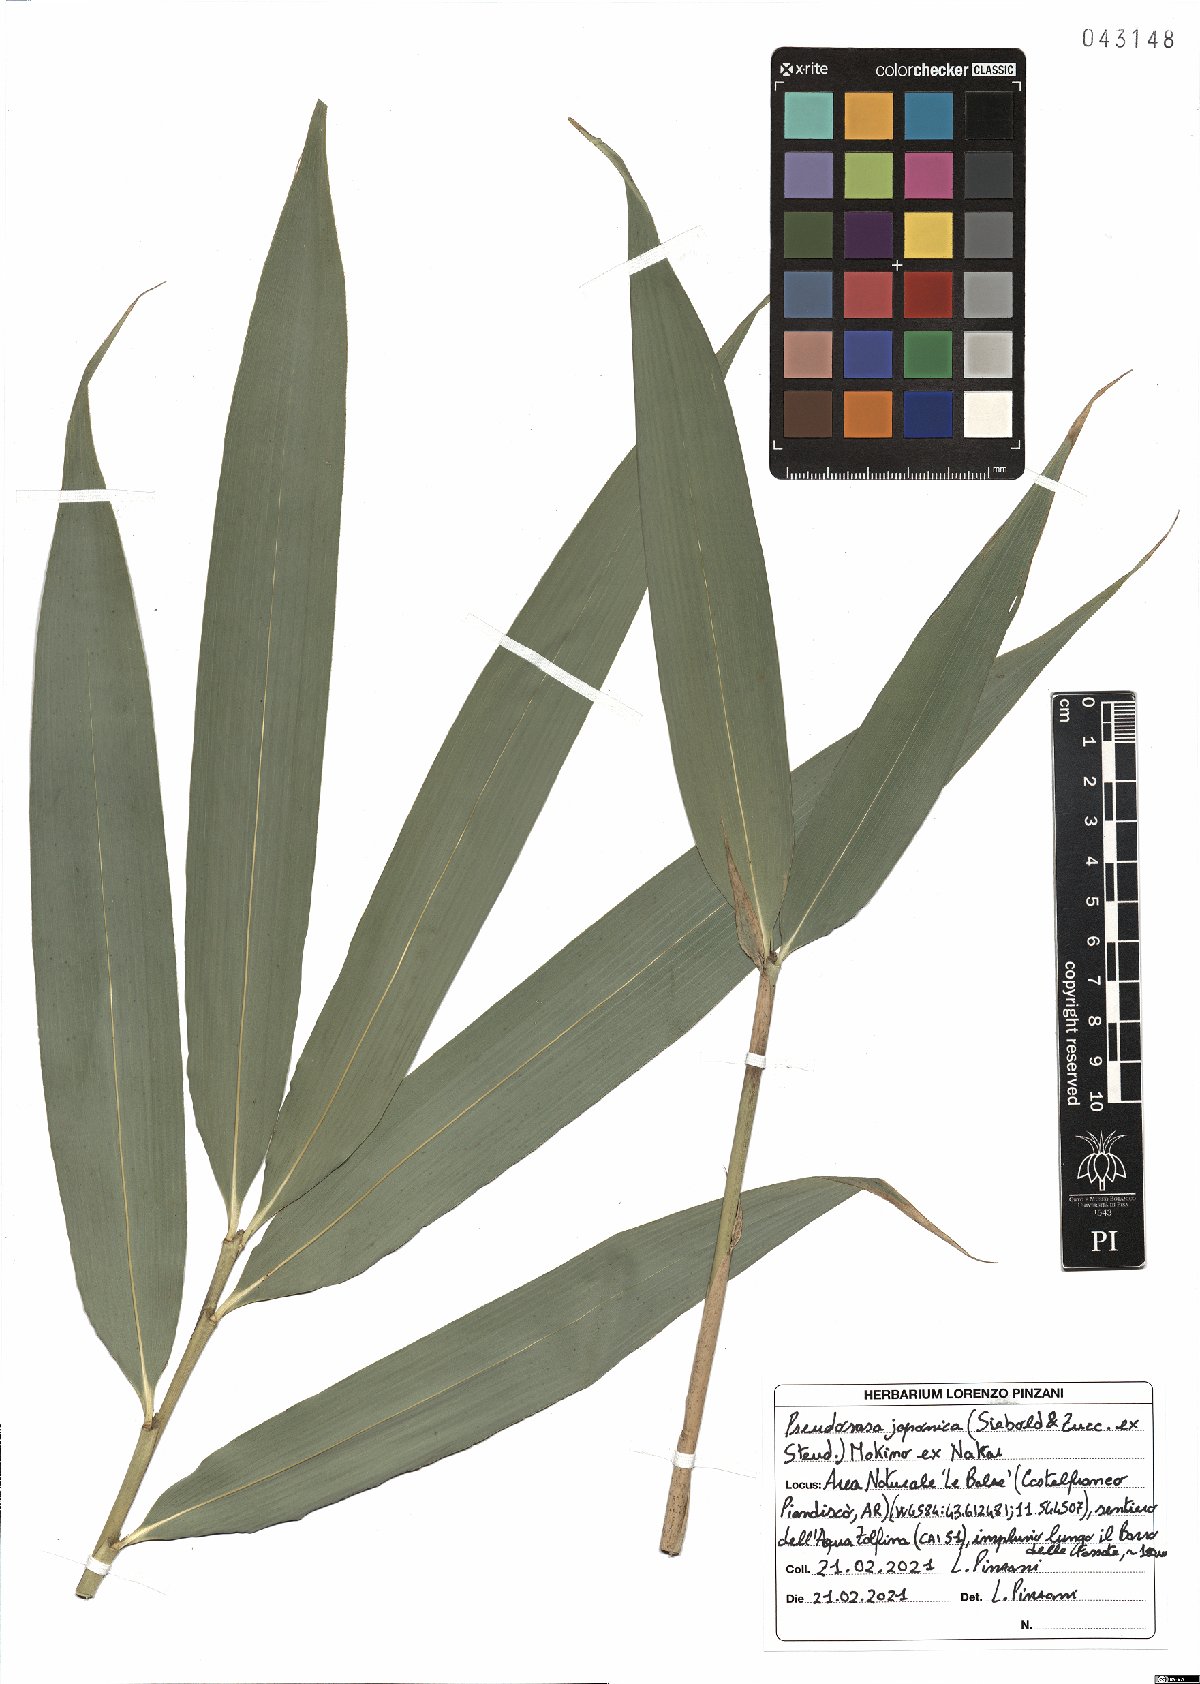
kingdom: Plantae
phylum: Tracheophyta
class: Liliopsida
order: Poales
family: Poaceae
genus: Pseudosasa
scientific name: Pseudosasa japonica
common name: Arrow bamboo
